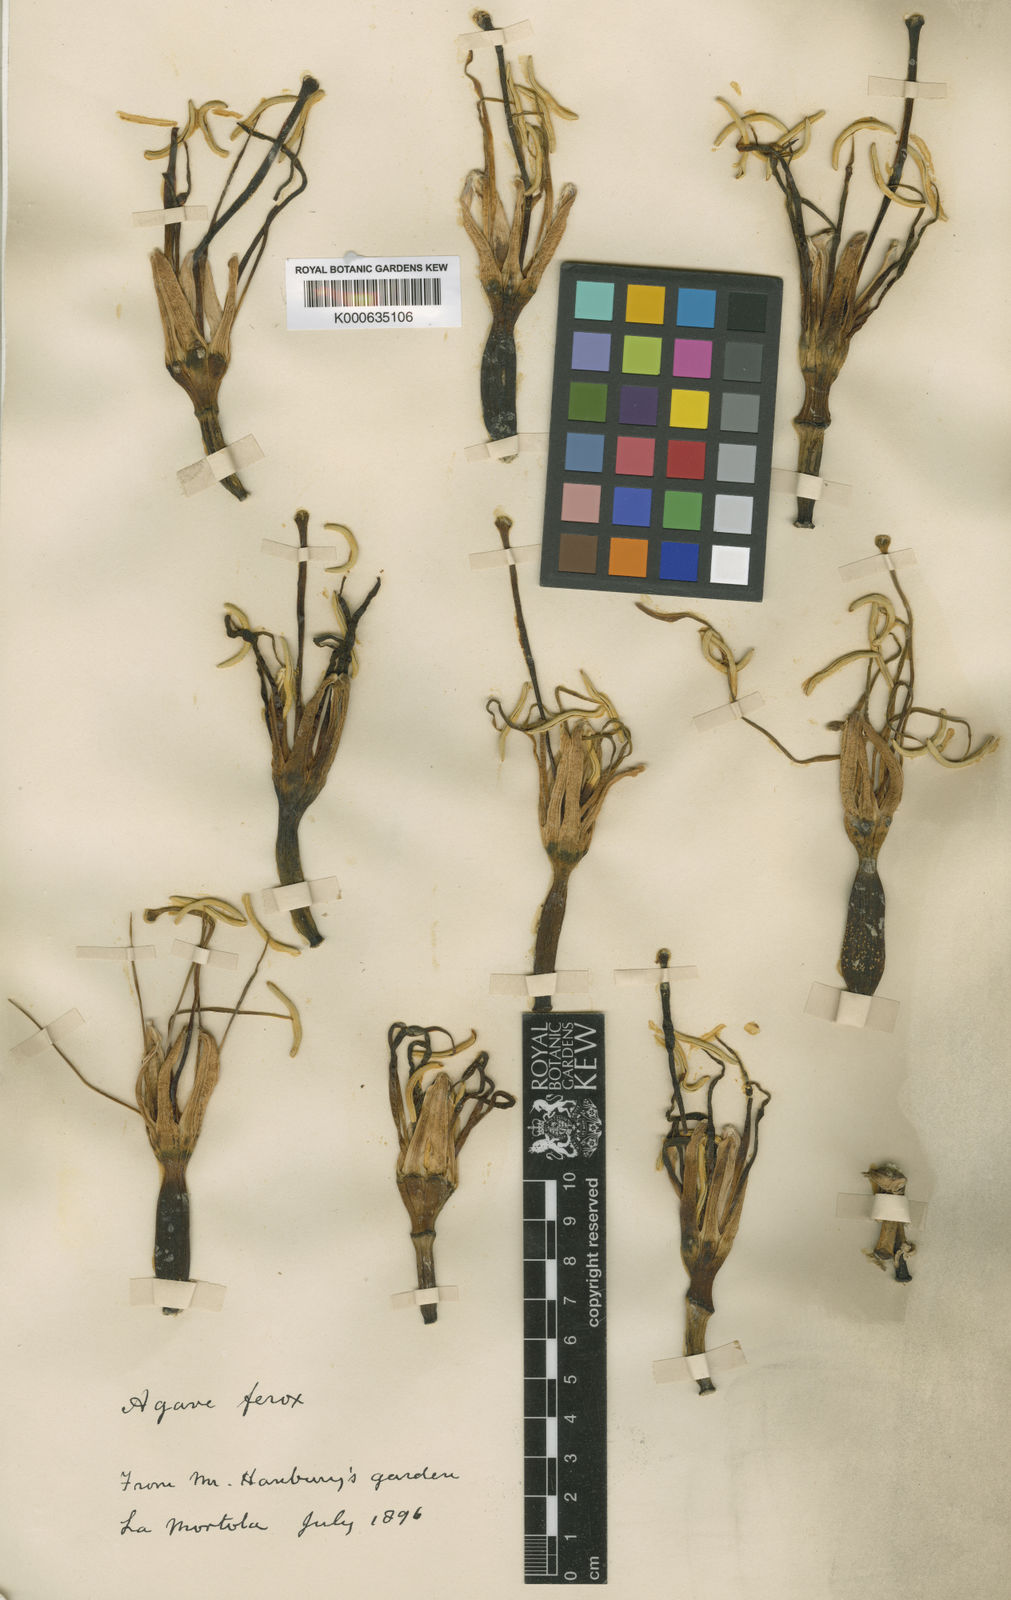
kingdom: Plantae
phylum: Tracheophyta
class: Liliopsida
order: Asparagales
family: Asparagaceae
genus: Agave
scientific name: Agave salmiana
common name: Pulque agave
